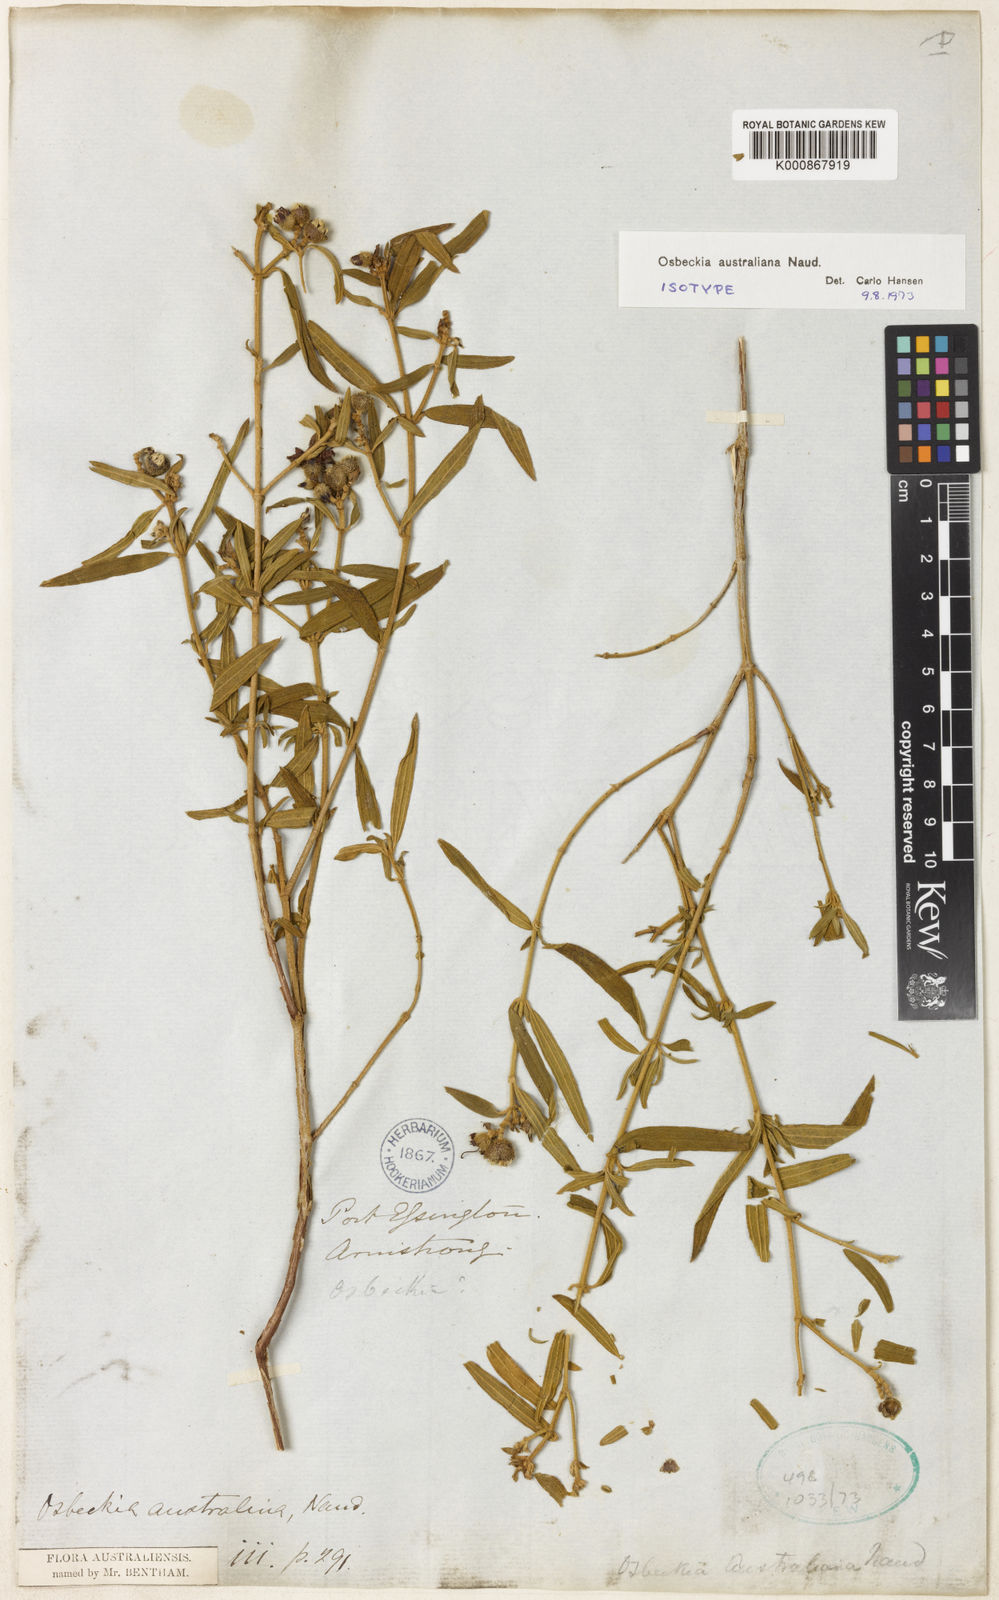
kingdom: Plantae
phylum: Tracheophyta
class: Magnoliopsida
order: Myrtales
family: Melastomataceae
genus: Osbeckia
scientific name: Osbeckia australiana
